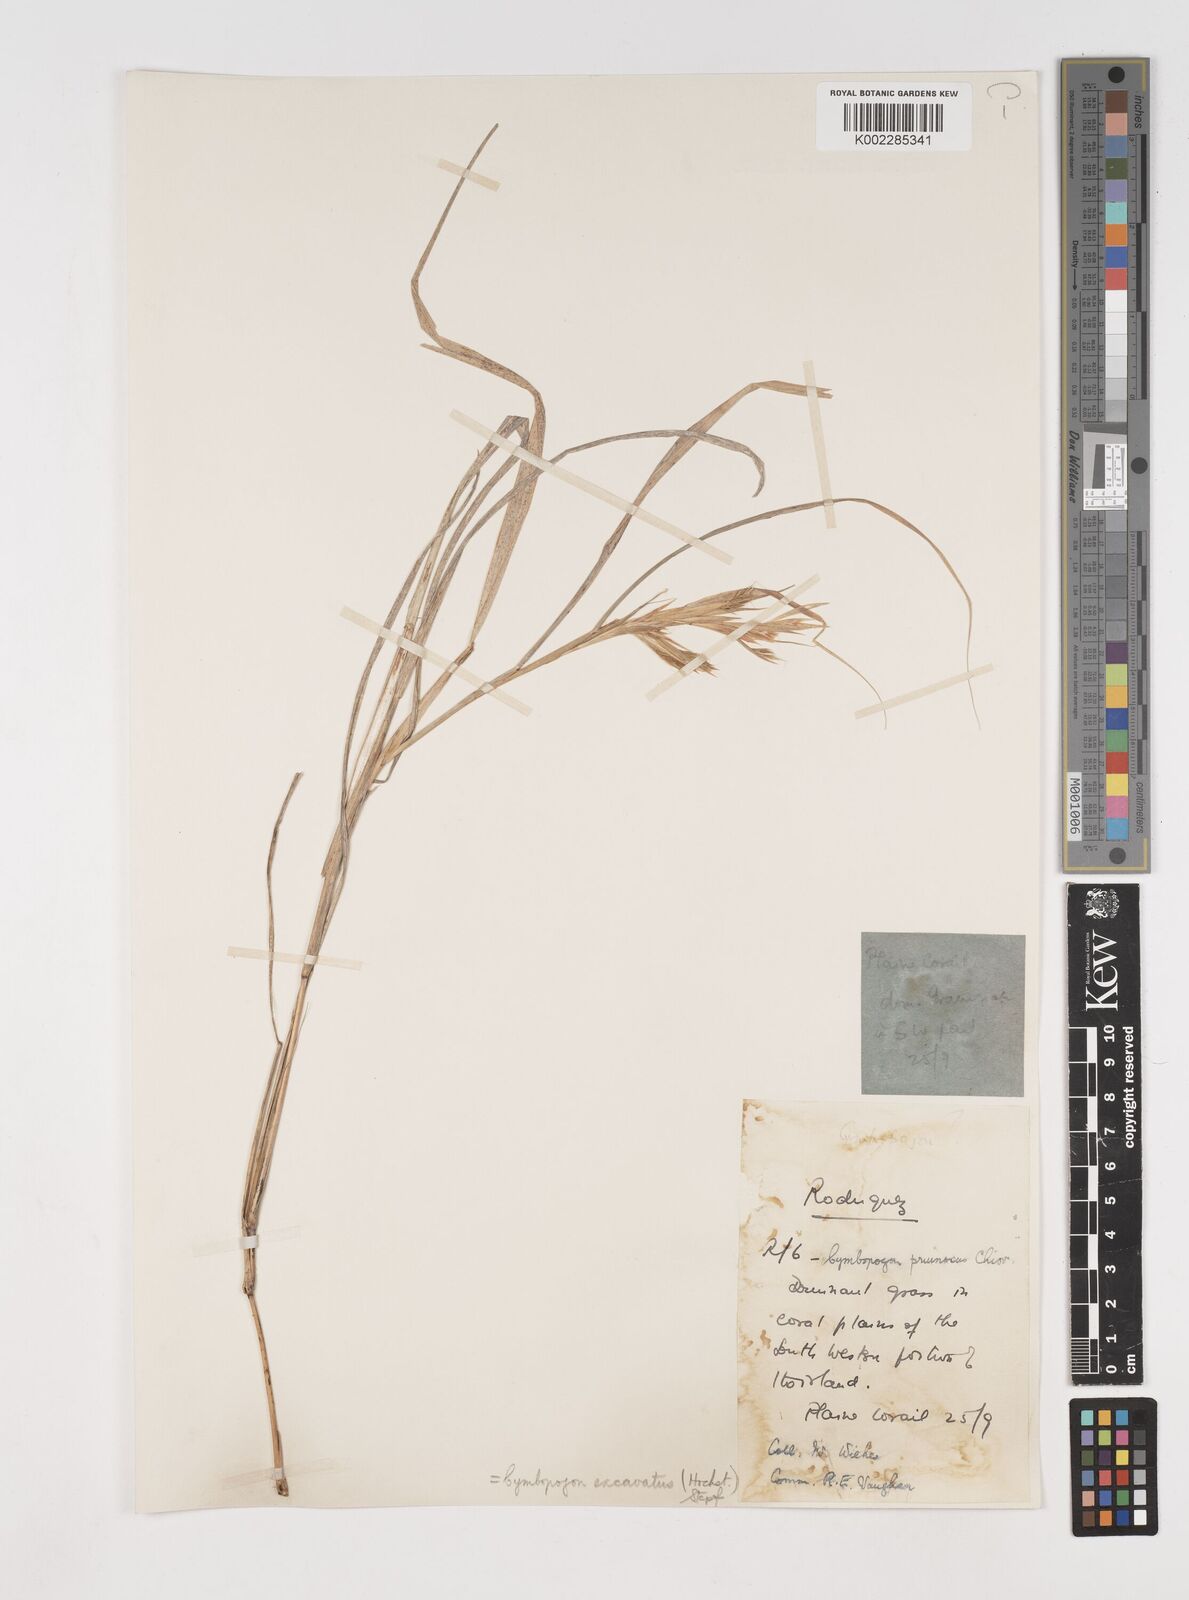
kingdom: Plantae
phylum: Tracheophyta
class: Liliopsida
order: Poales
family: Poaceae
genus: Cymbopogon
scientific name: Cymbopogon pruinosus
